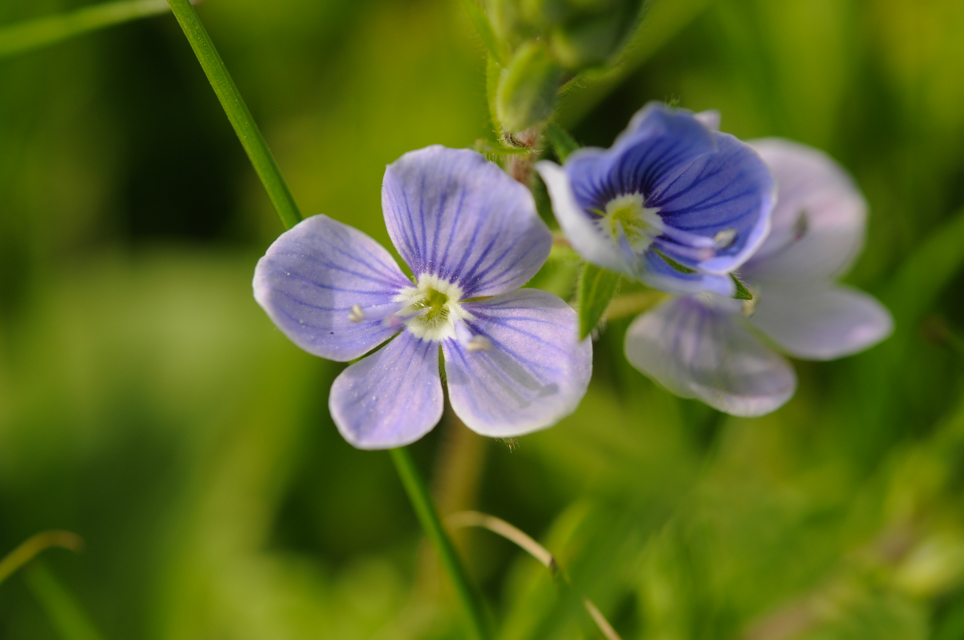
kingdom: Plantae
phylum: Tracheophyta
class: Magnoliopsida
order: Lamiales
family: Plantaginaceae
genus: Veronica
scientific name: Veronica chamaedrys
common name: Germander speedwell
